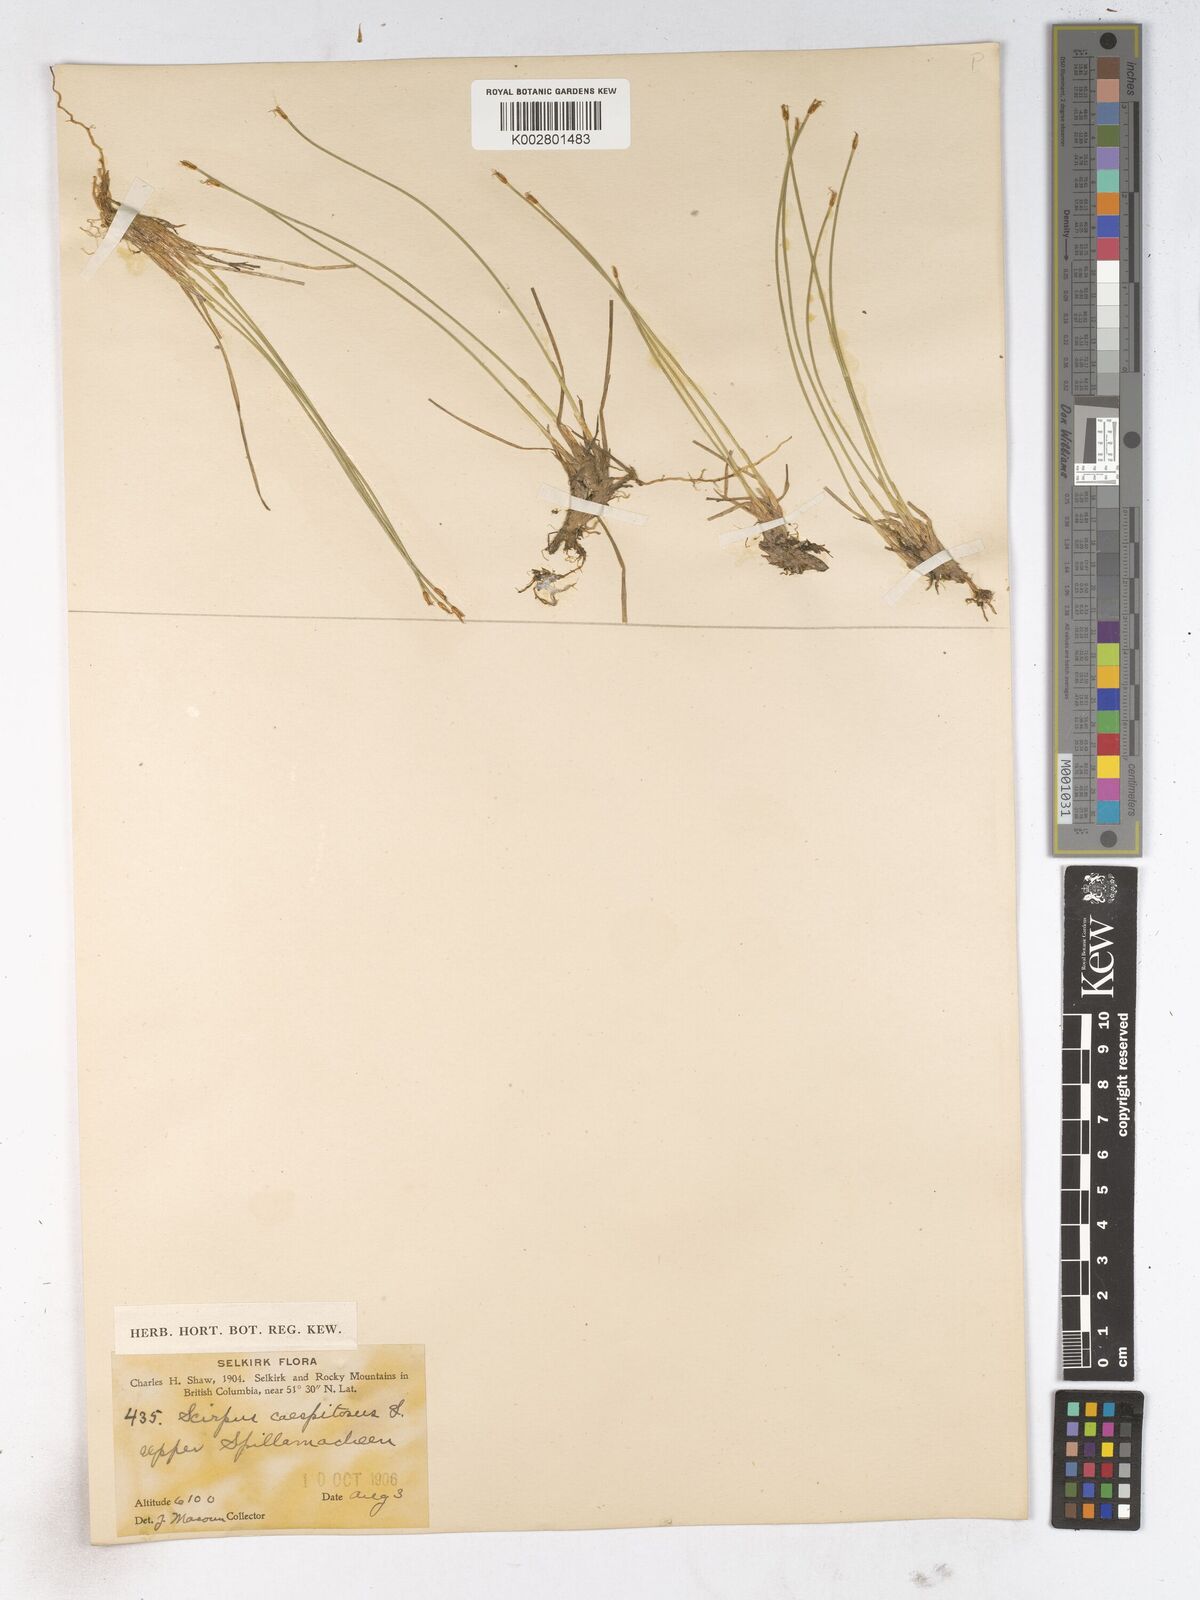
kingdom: Plantae
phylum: Tracheophyta
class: Liliopsida
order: Poales
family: Cyperaceae
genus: Trichophorum
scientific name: Trichophorum cespitosum
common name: Cespitose bulrush
